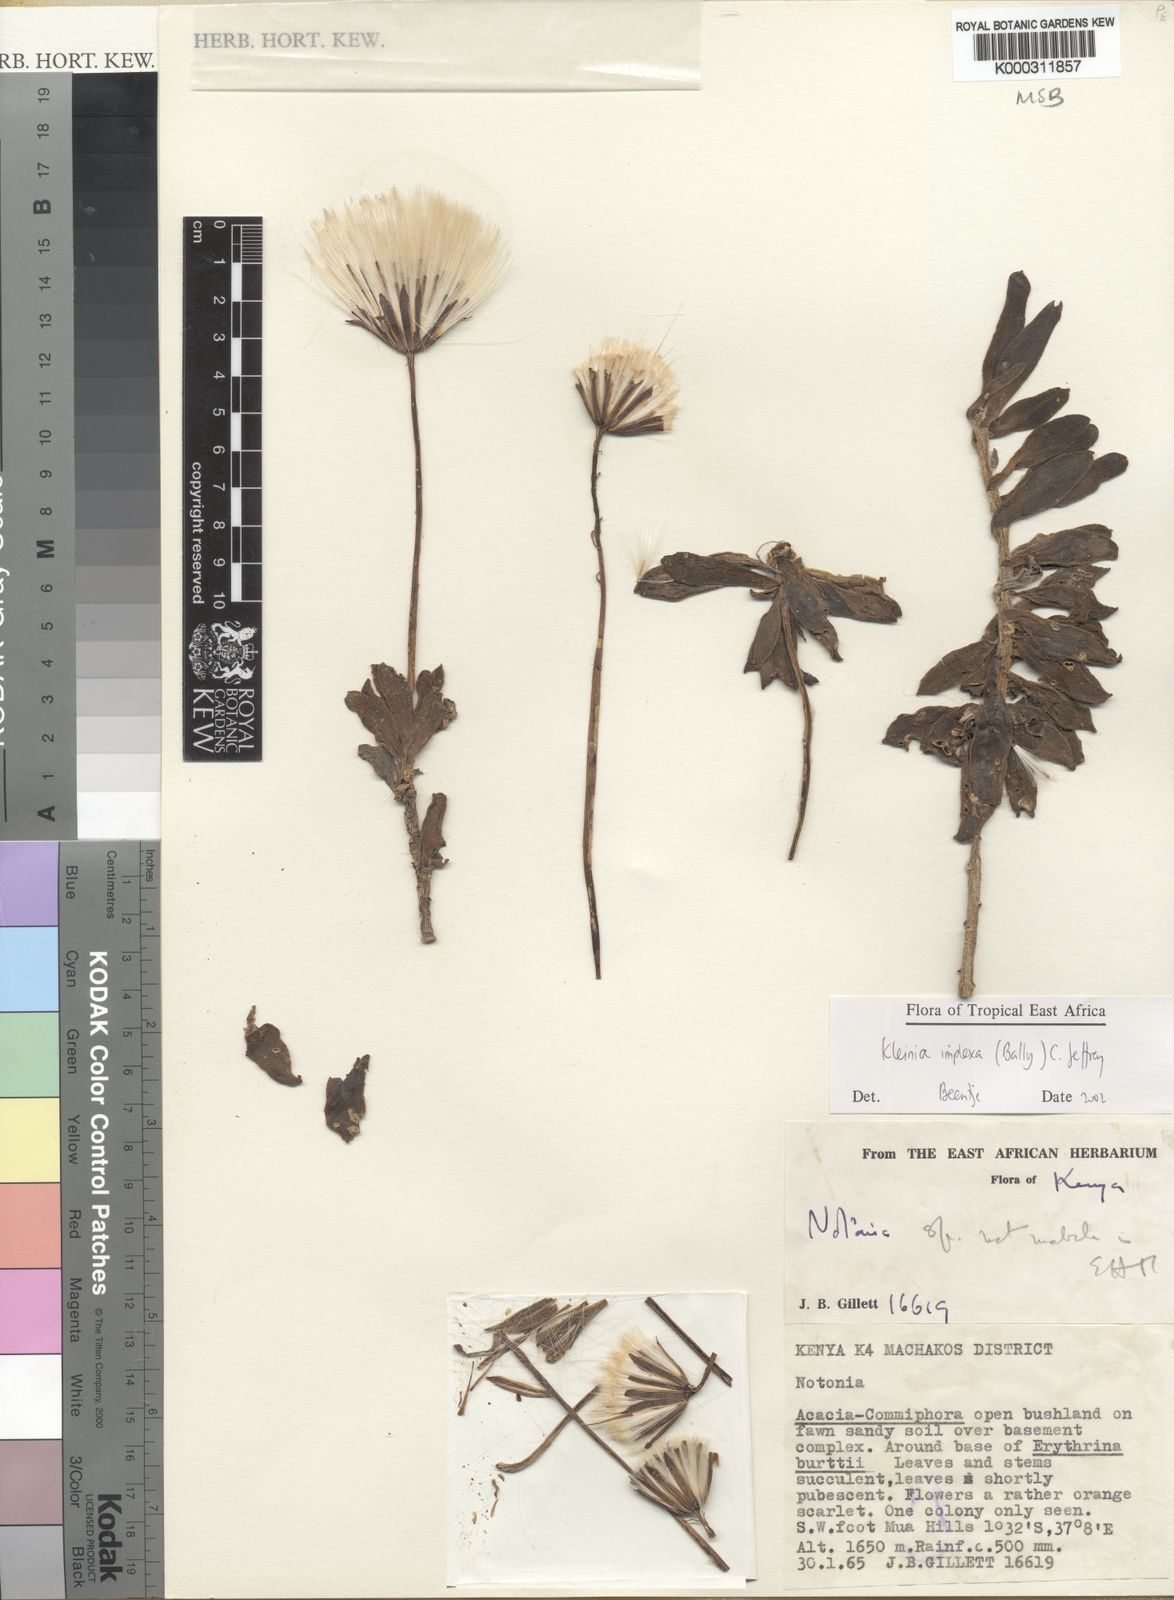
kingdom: Plantae
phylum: Tracheophyta
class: Magnoliopsida
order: Asterales
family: Asteraceae
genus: Kleinia
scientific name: Kleinia implexa
